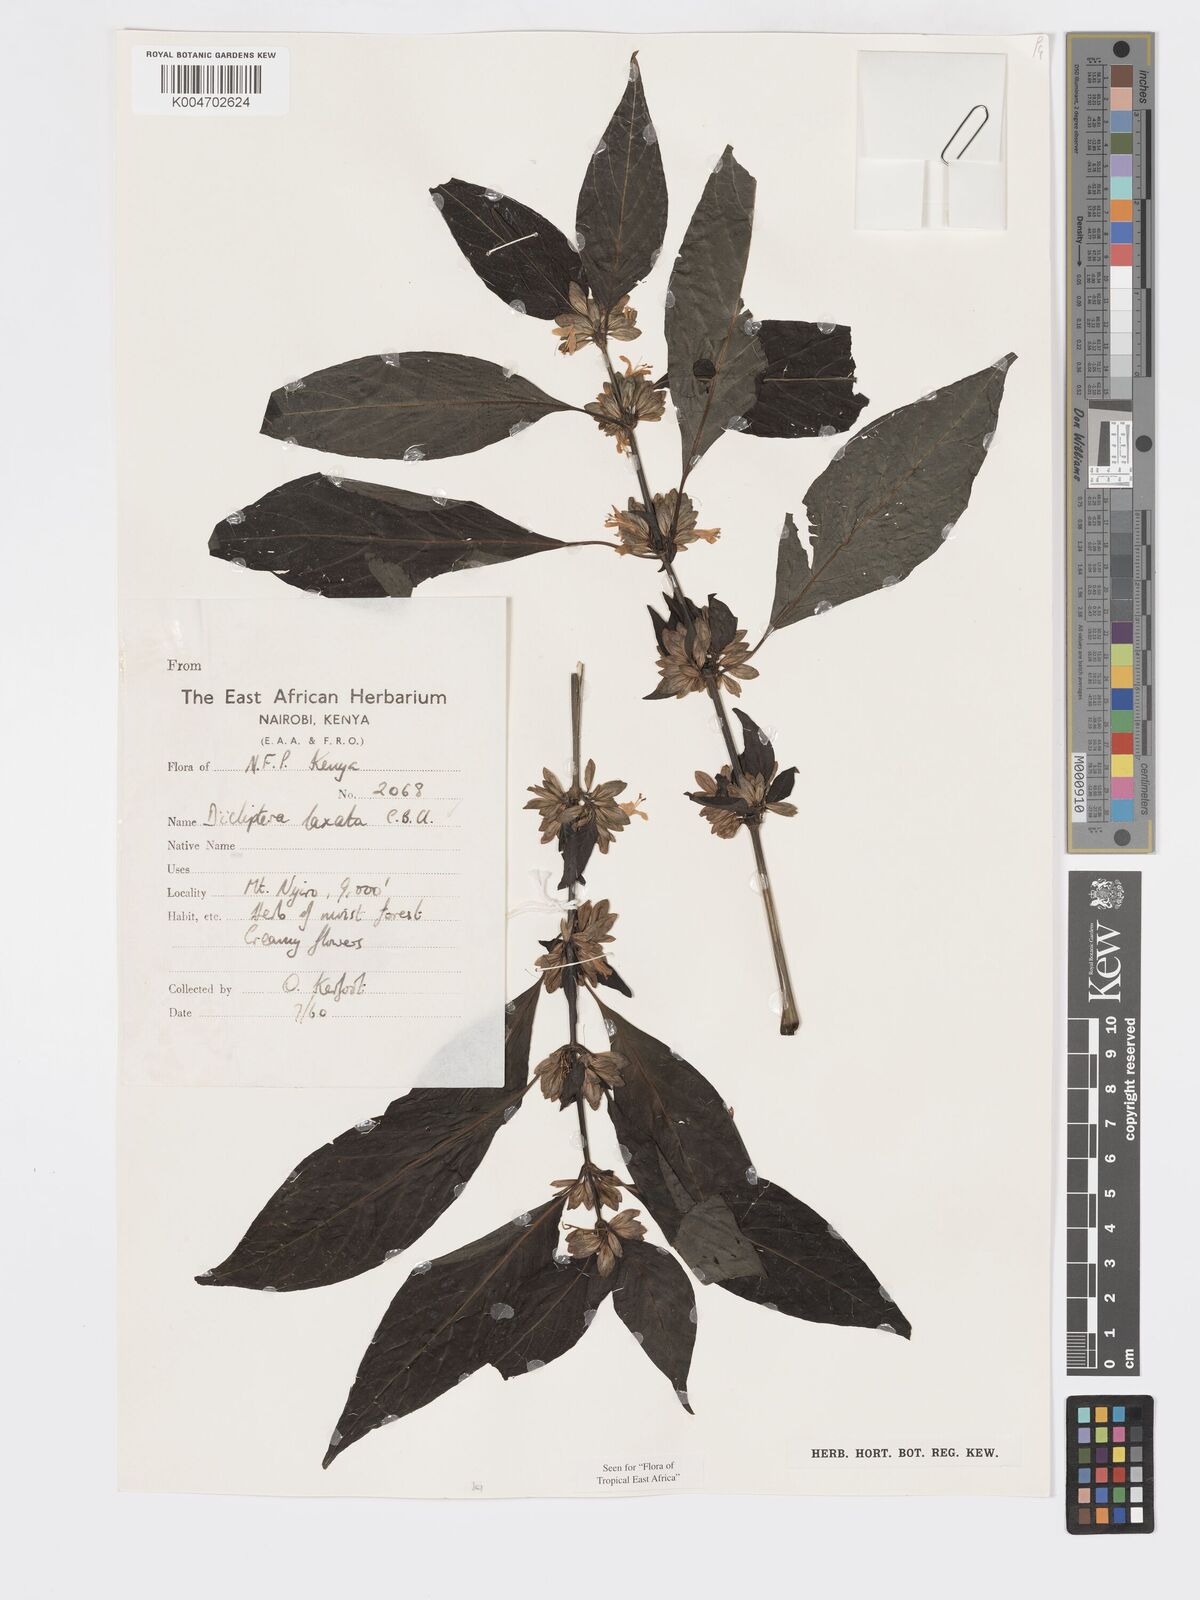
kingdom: Plantae
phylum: Tracheophyta
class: Magnoliopsida
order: Lamiales
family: Acanthaceae
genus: Dicliptera
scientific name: Dicliptera laxata
